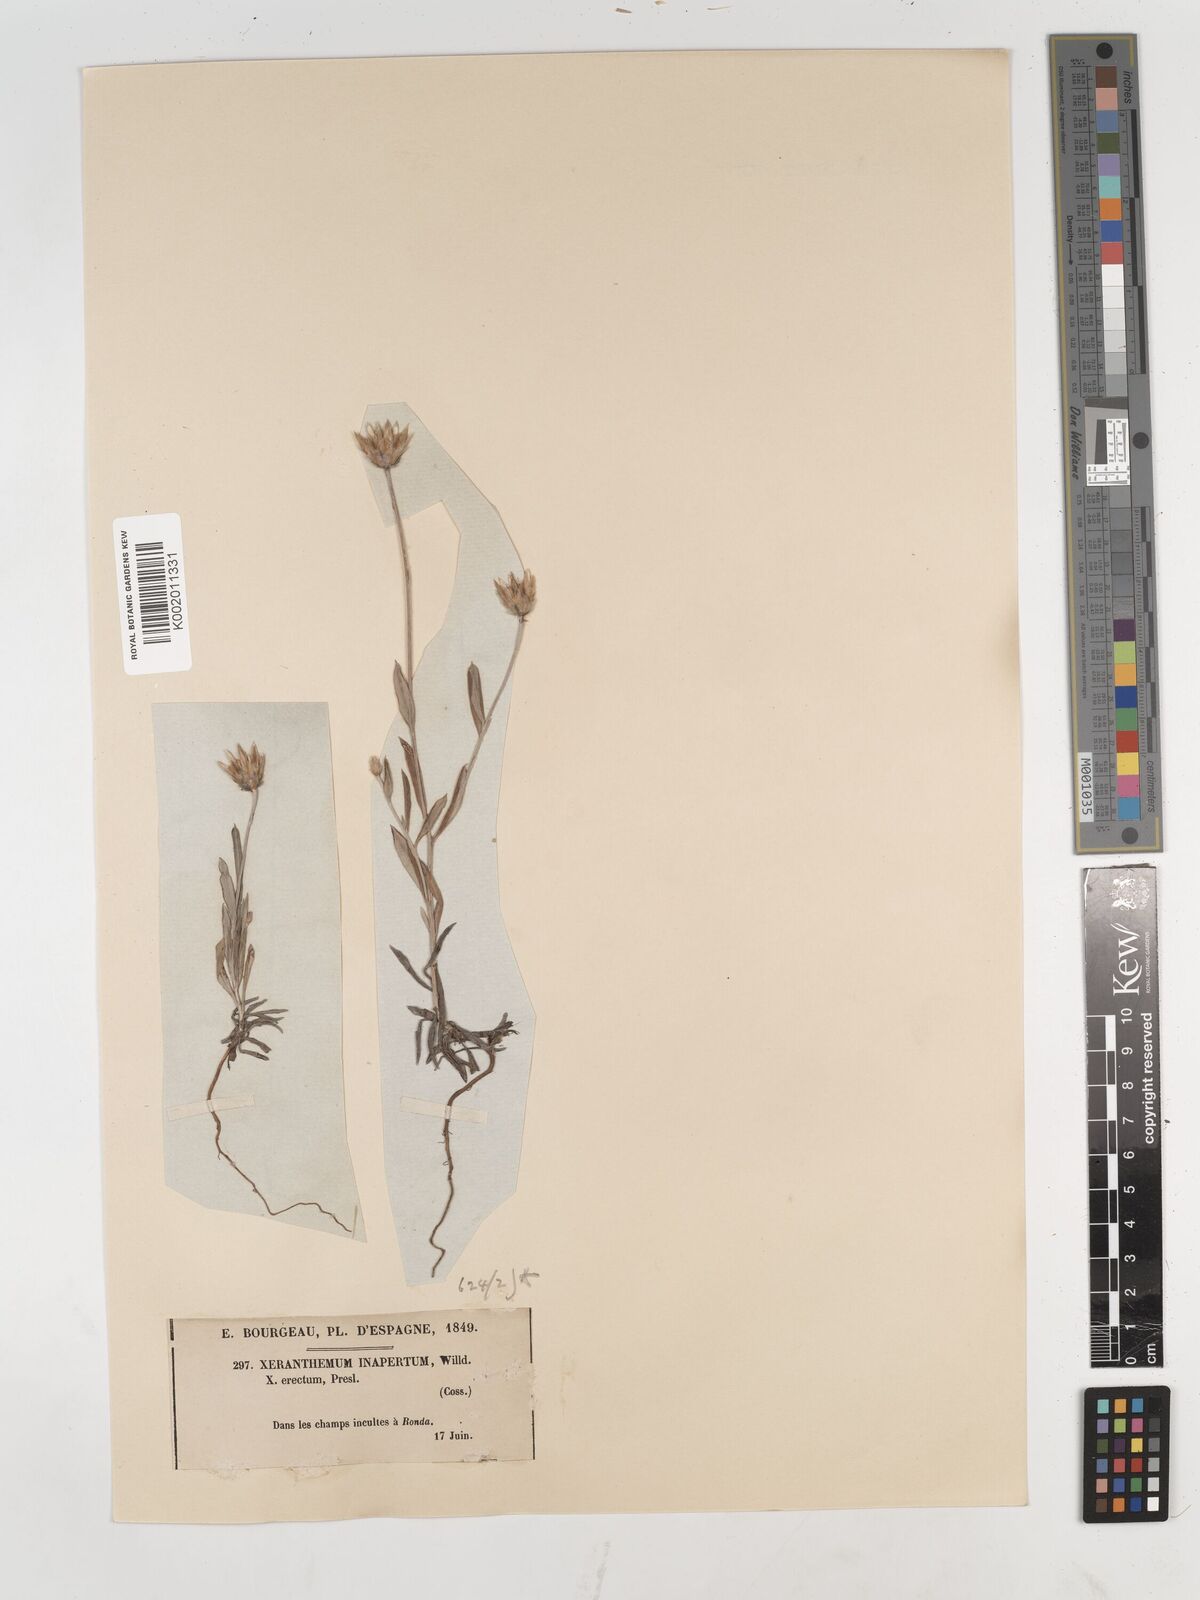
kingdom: Plantae
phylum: Tracheophyta
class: Magnoliopsida
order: Asterales
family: Asteraceae
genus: Xeranthemum
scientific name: Xeranthemum inapertum
